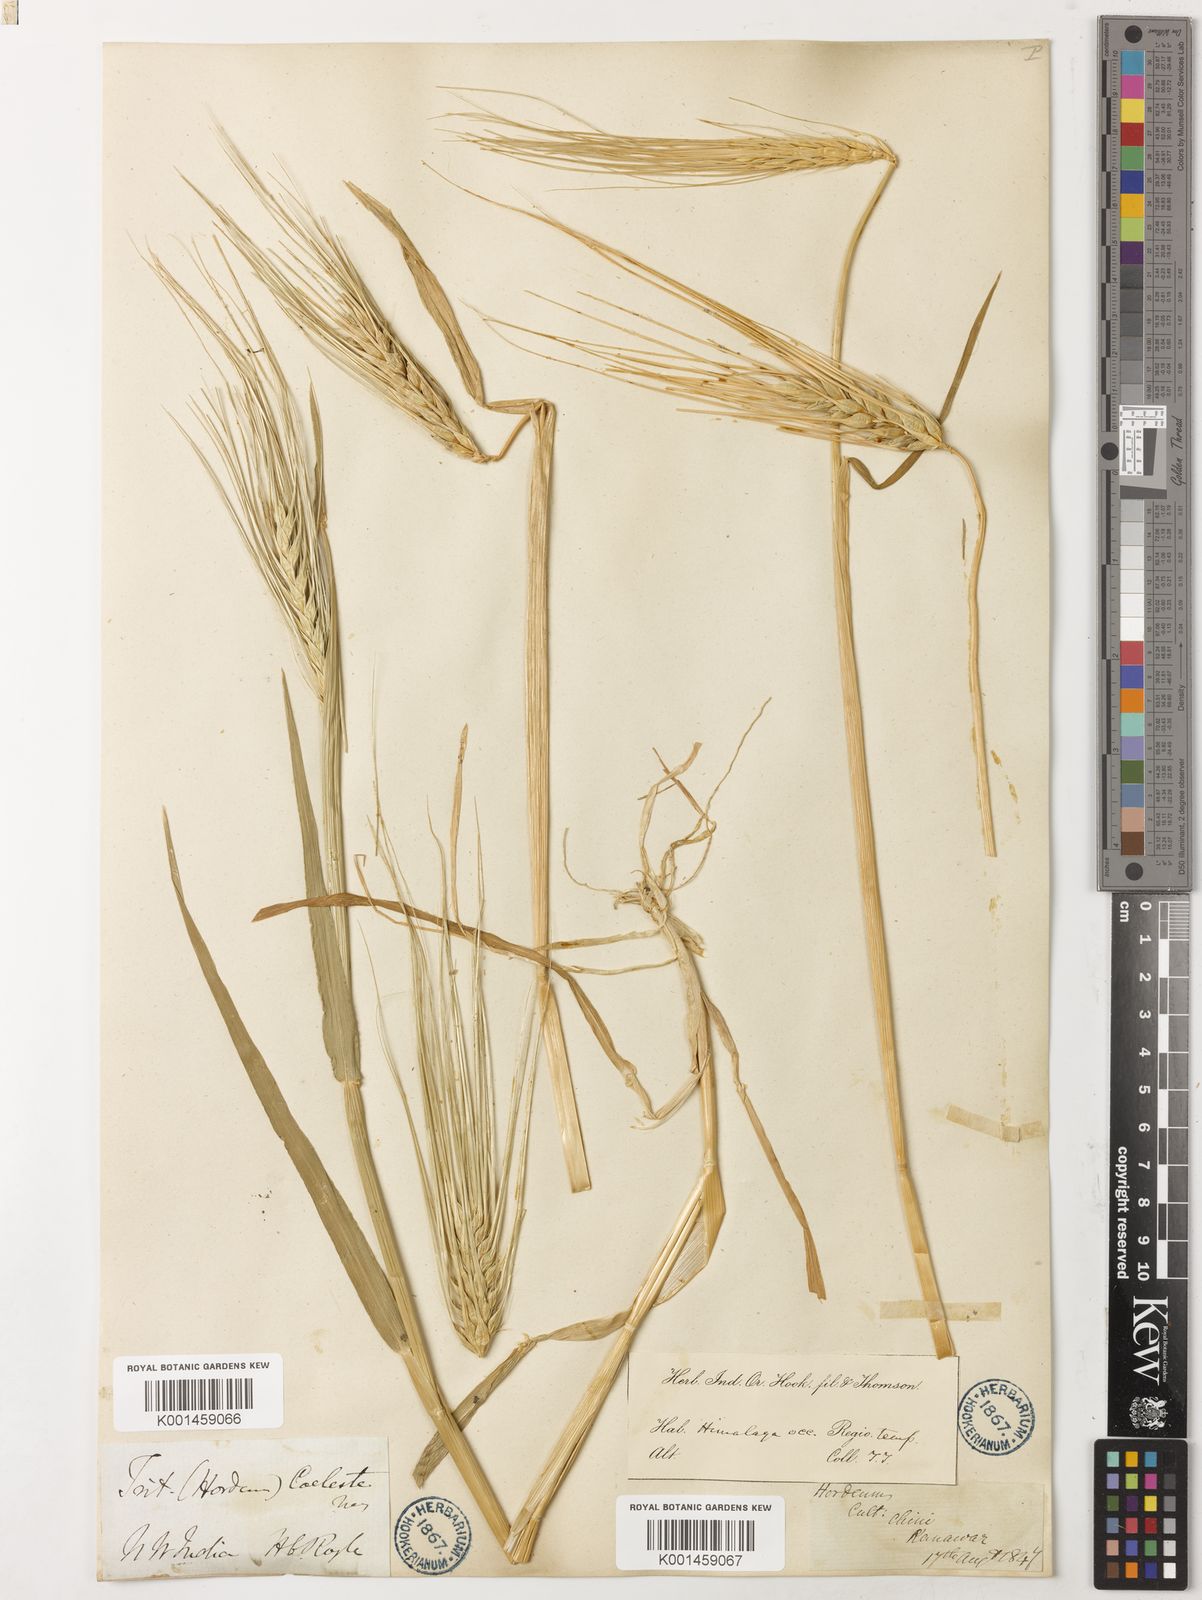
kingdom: Plantae
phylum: Tracheophyta
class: Liliopsida
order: Poales
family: Poaceae
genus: Hordeum
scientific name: Hordeum vulgare
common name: Common barley
